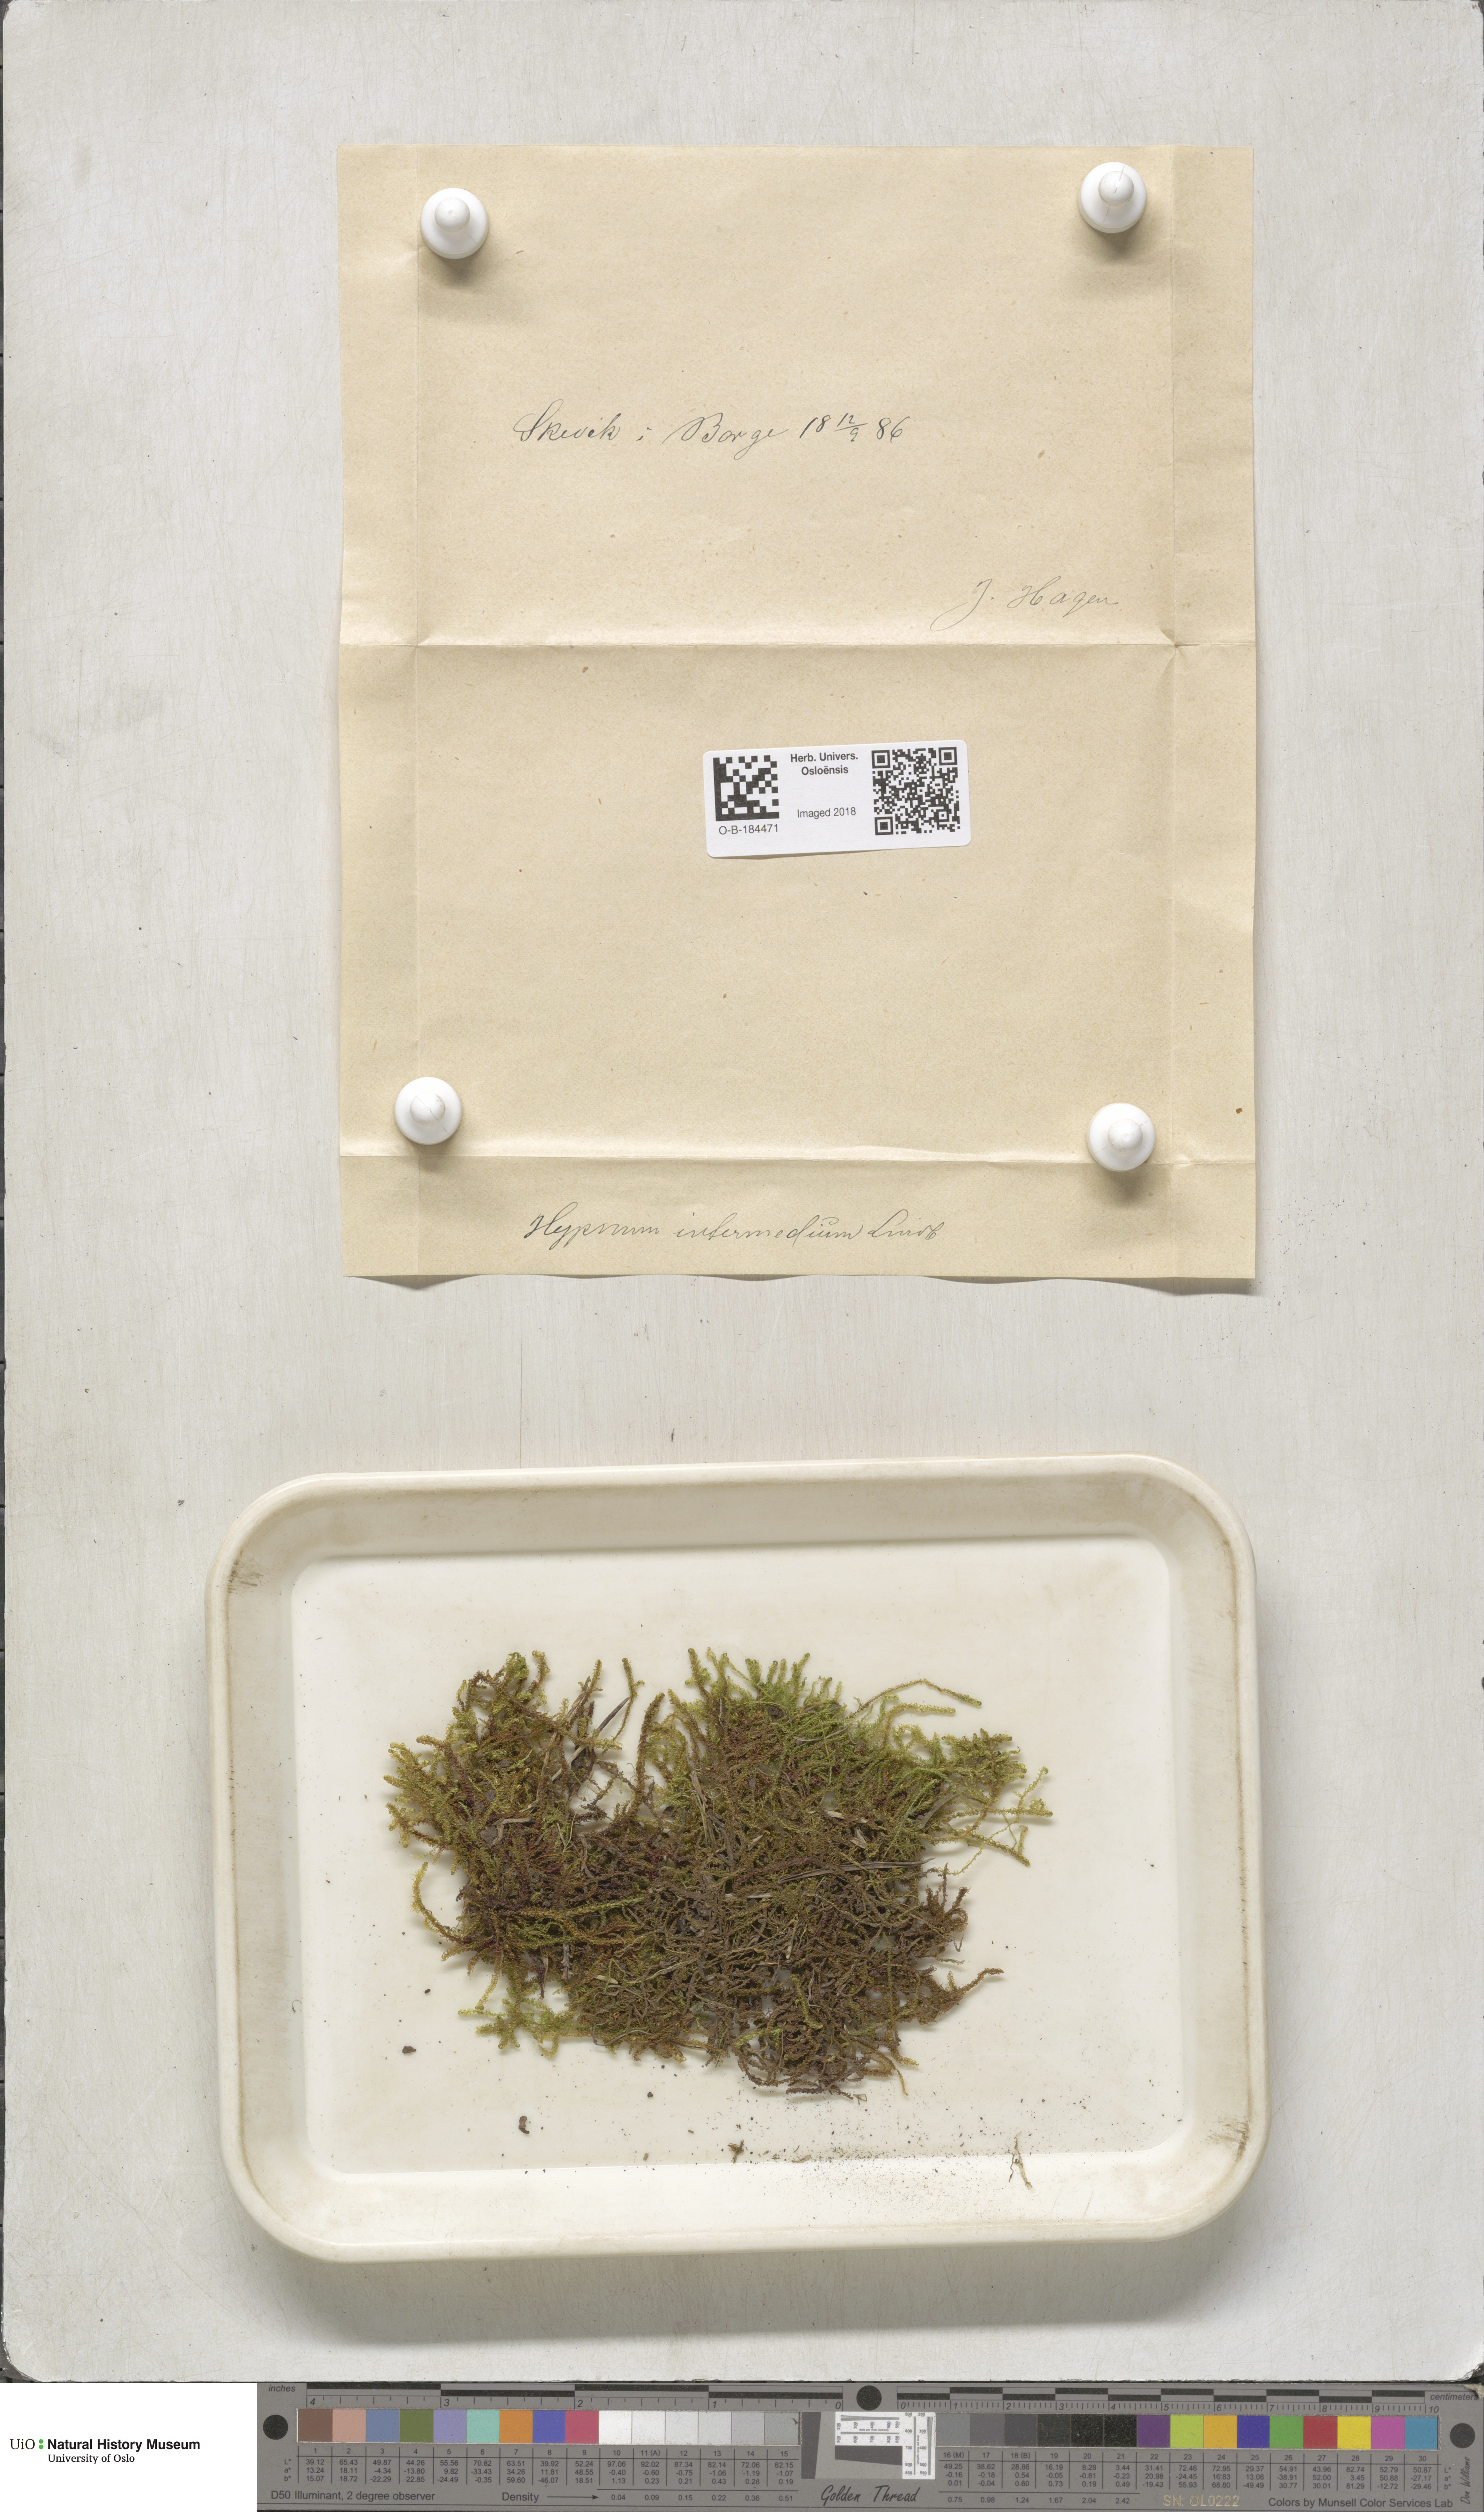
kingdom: Plantae
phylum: Bryophyta
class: Bryopsida
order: Hypnales
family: Scorpidiaceae
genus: Scorpidium
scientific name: Scorpidium cossonii
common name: Cosson's hook moss
